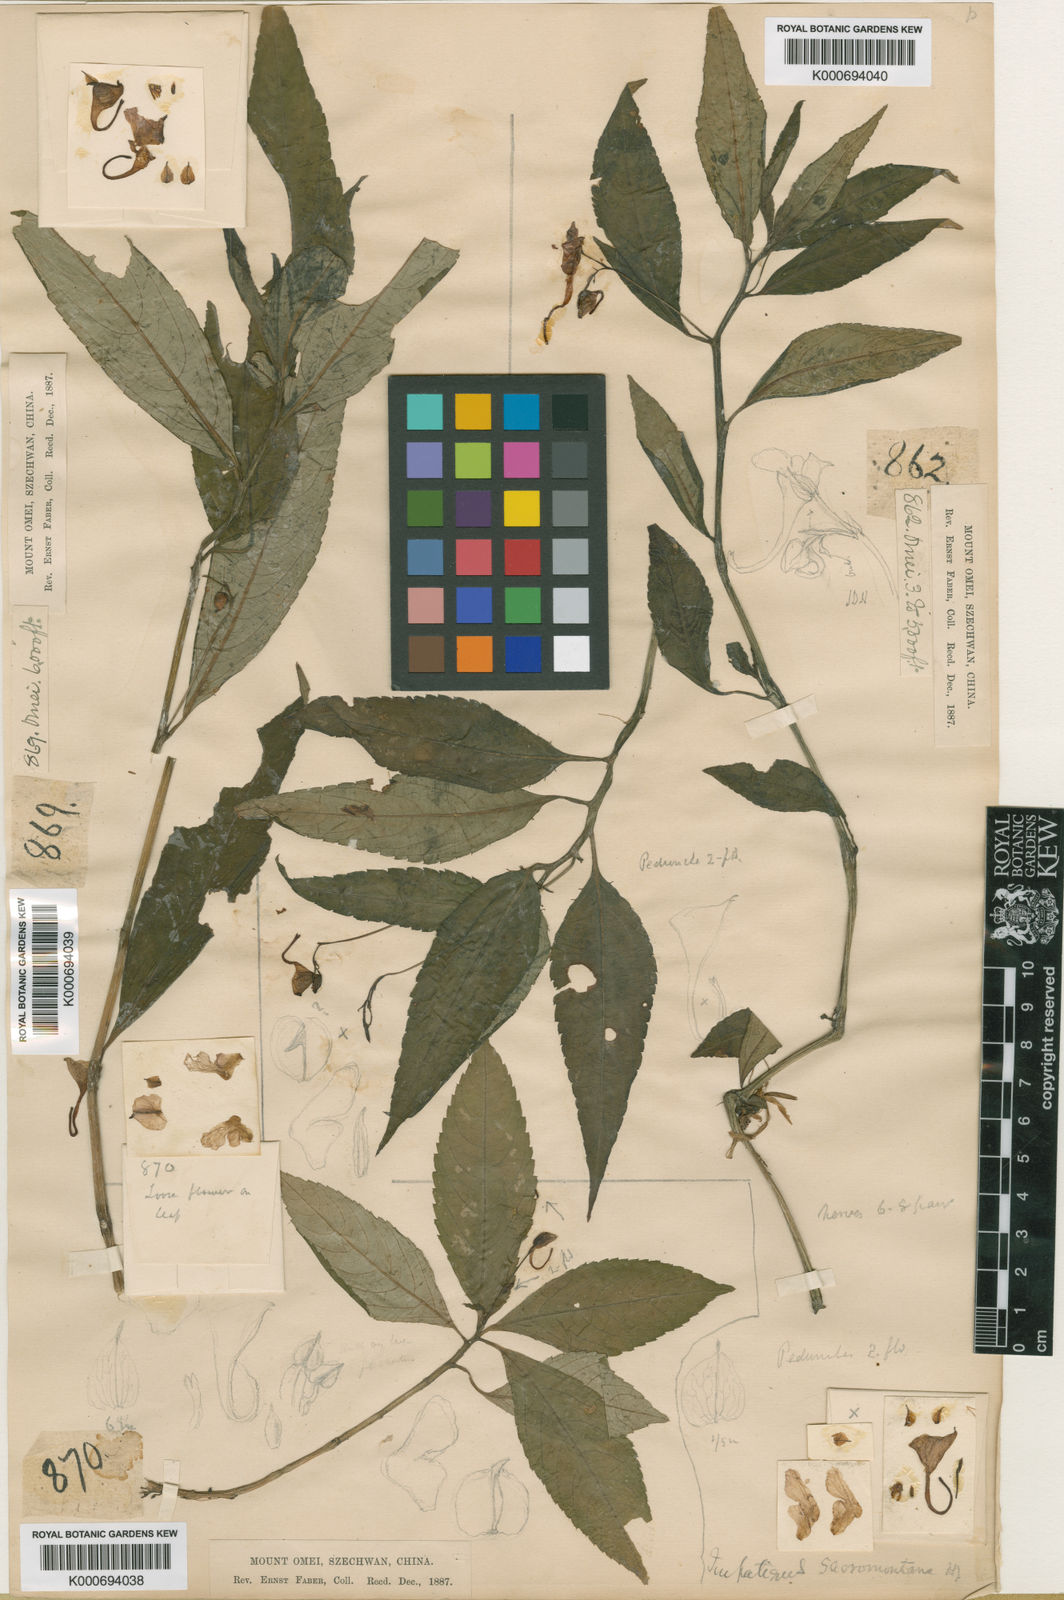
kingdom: Plantae
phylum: Tracheophyta
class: Magnoliopsida
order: Ericales
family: Balsaminaceae
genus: Impatiens
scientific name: Impatiens
